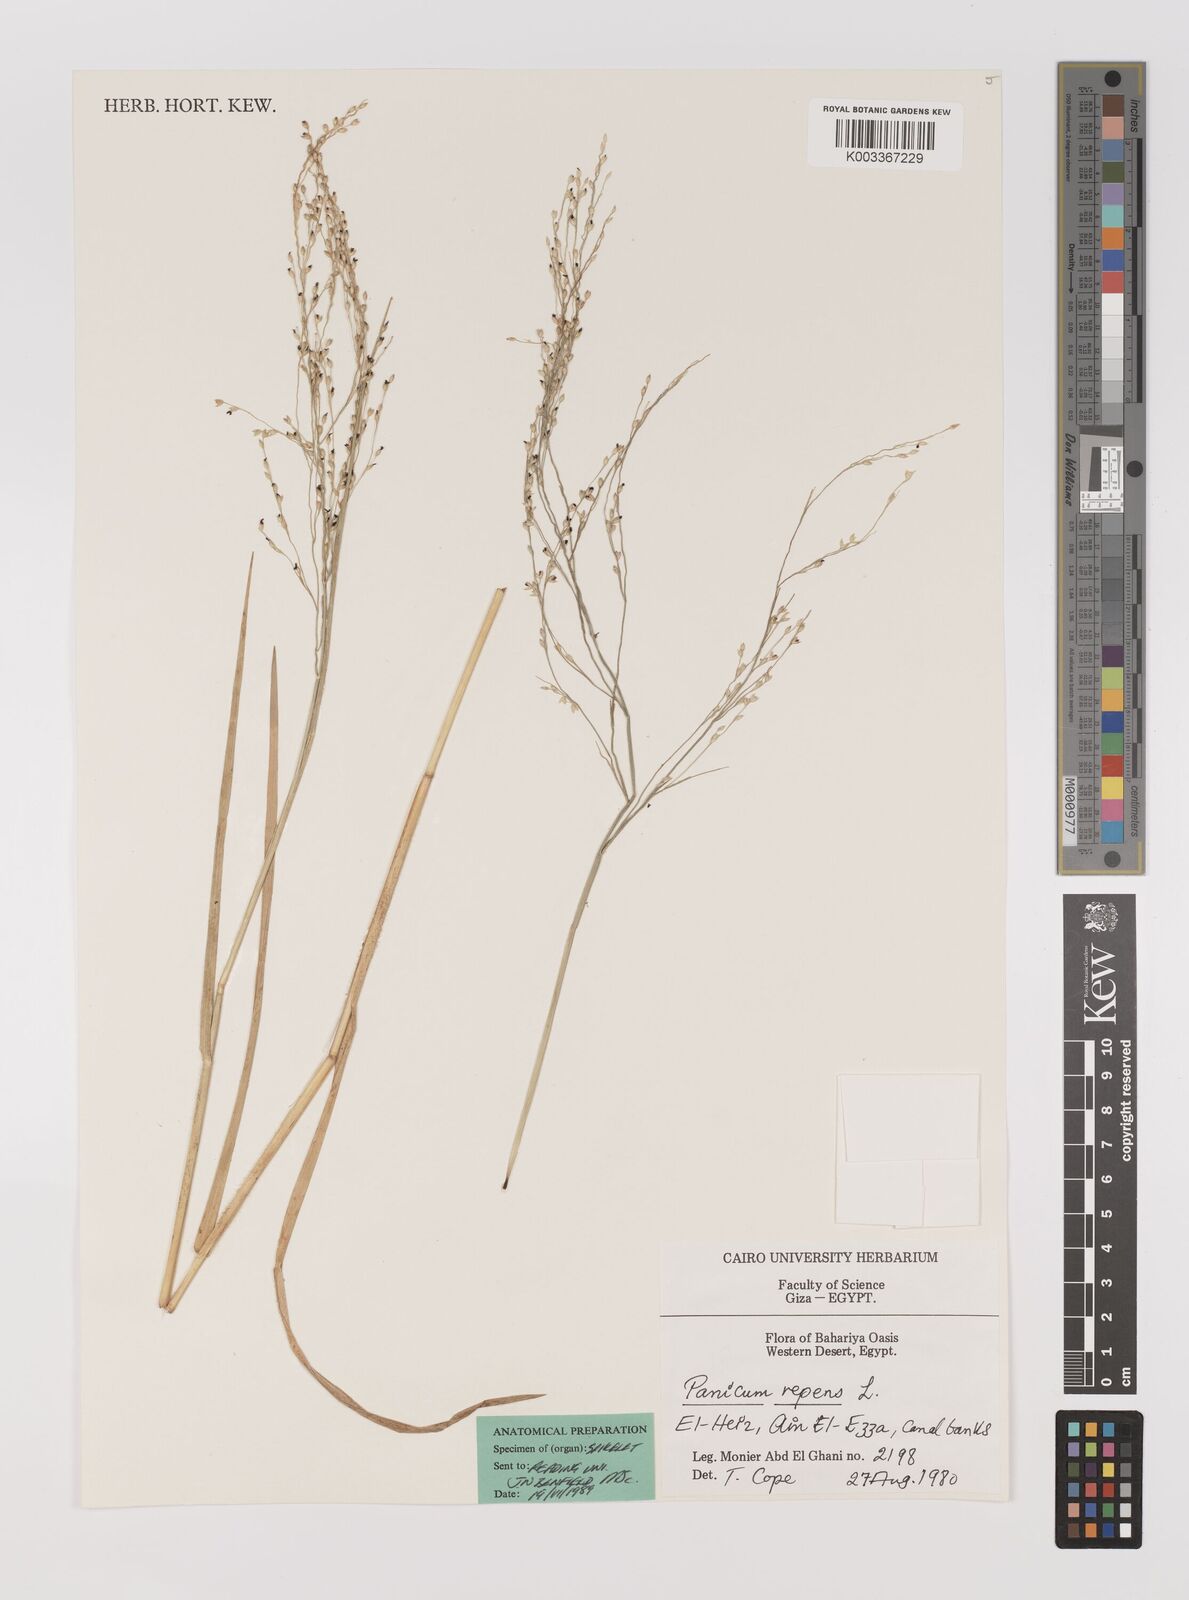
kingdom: Plantae
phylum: Tracheophyta
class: Liliopsida
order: Poales
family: Poaceae
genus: Panicum
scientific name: Panicum repens
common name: Torpedo grass
